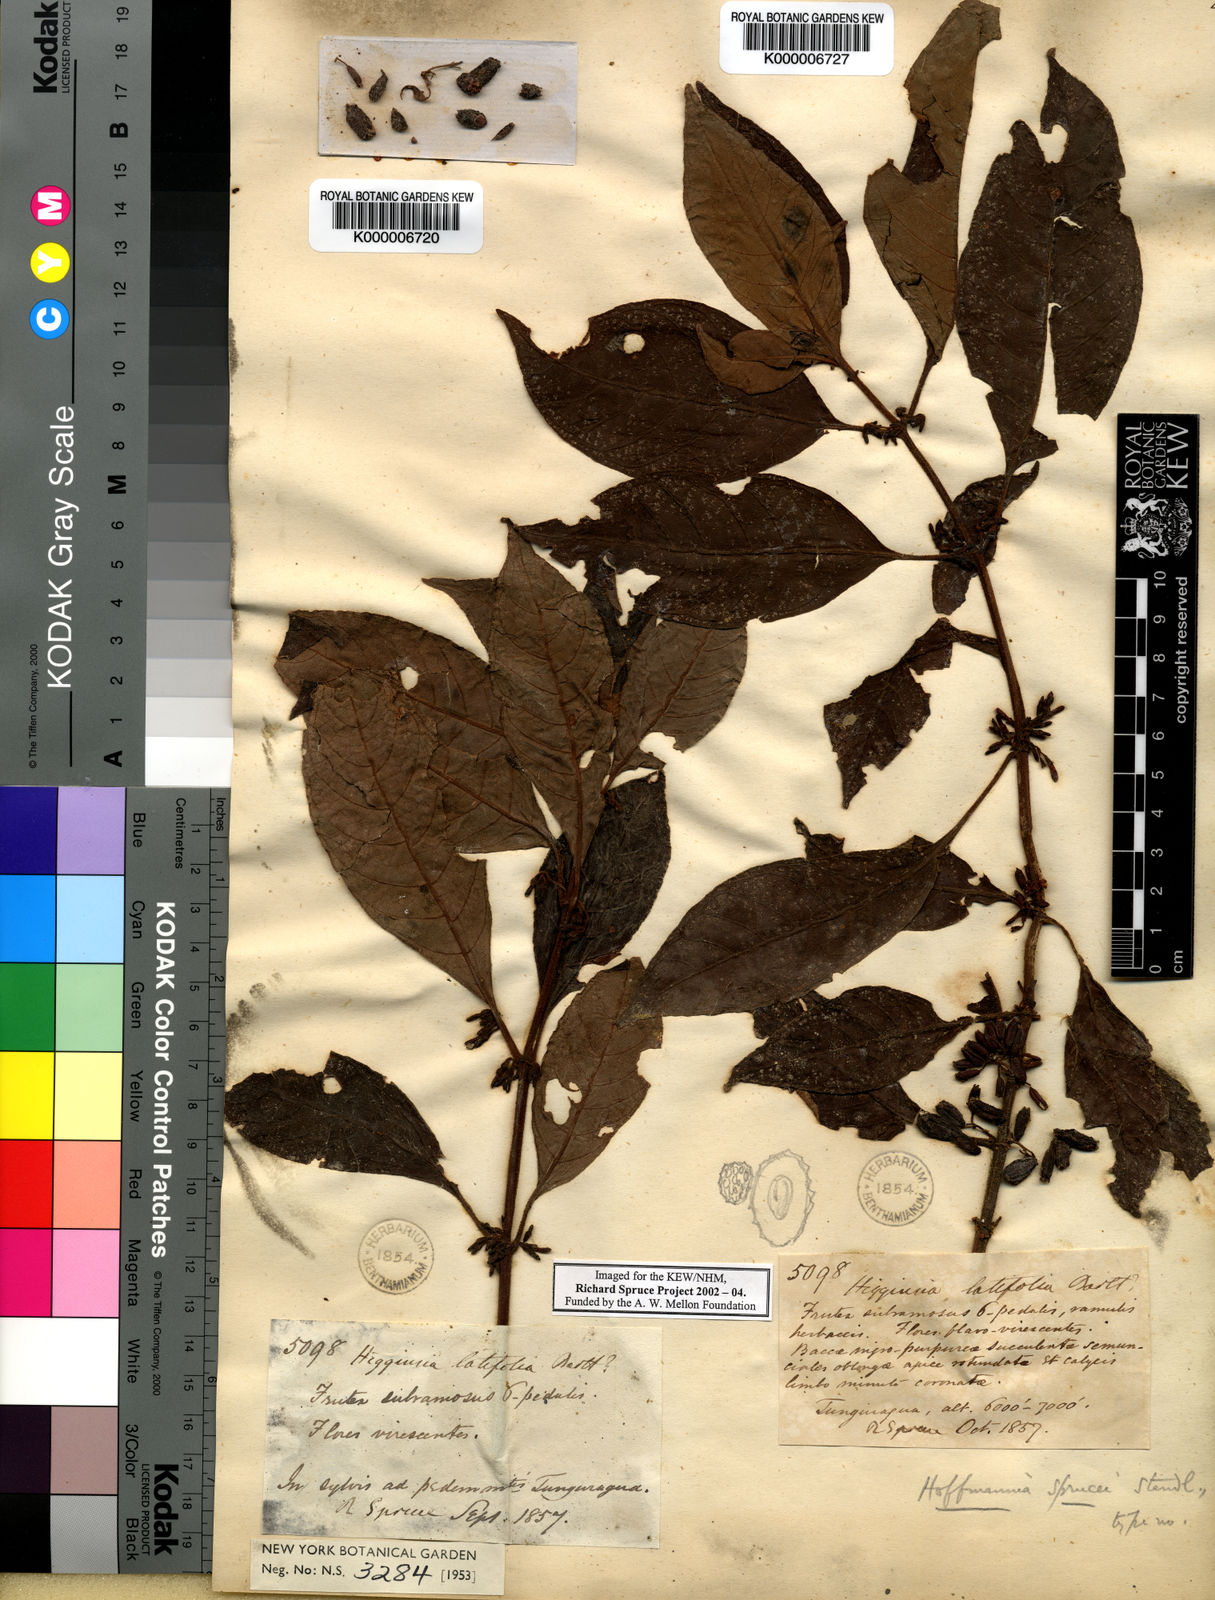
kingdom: Plantae
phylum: Tracheophyta
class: Magnoliopsida
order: Gentianales
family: Rubiaceae
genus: Hoffmannia
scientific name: Hoffmannia sprucei
